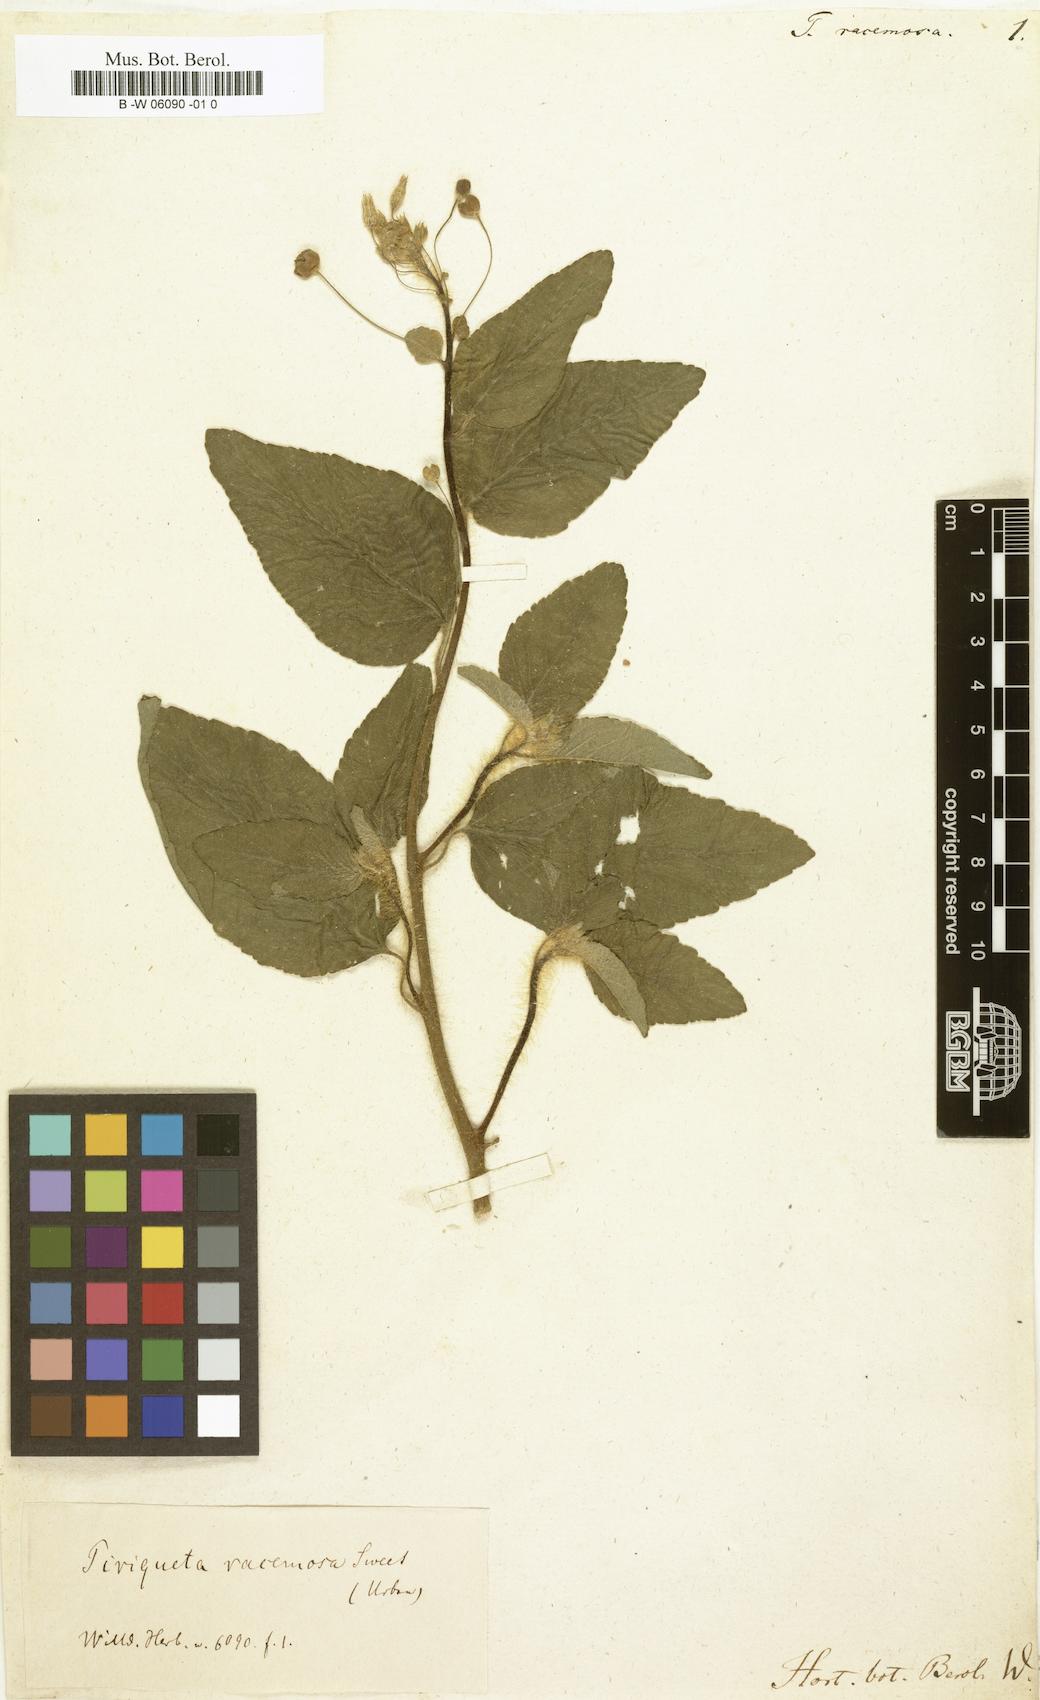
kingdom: Plantae
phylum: Tracheophyta
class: Magnoliopsida
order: Malpighiales
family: Turneraceae
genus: Piriqueta
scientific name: Piriqueta racemosa
